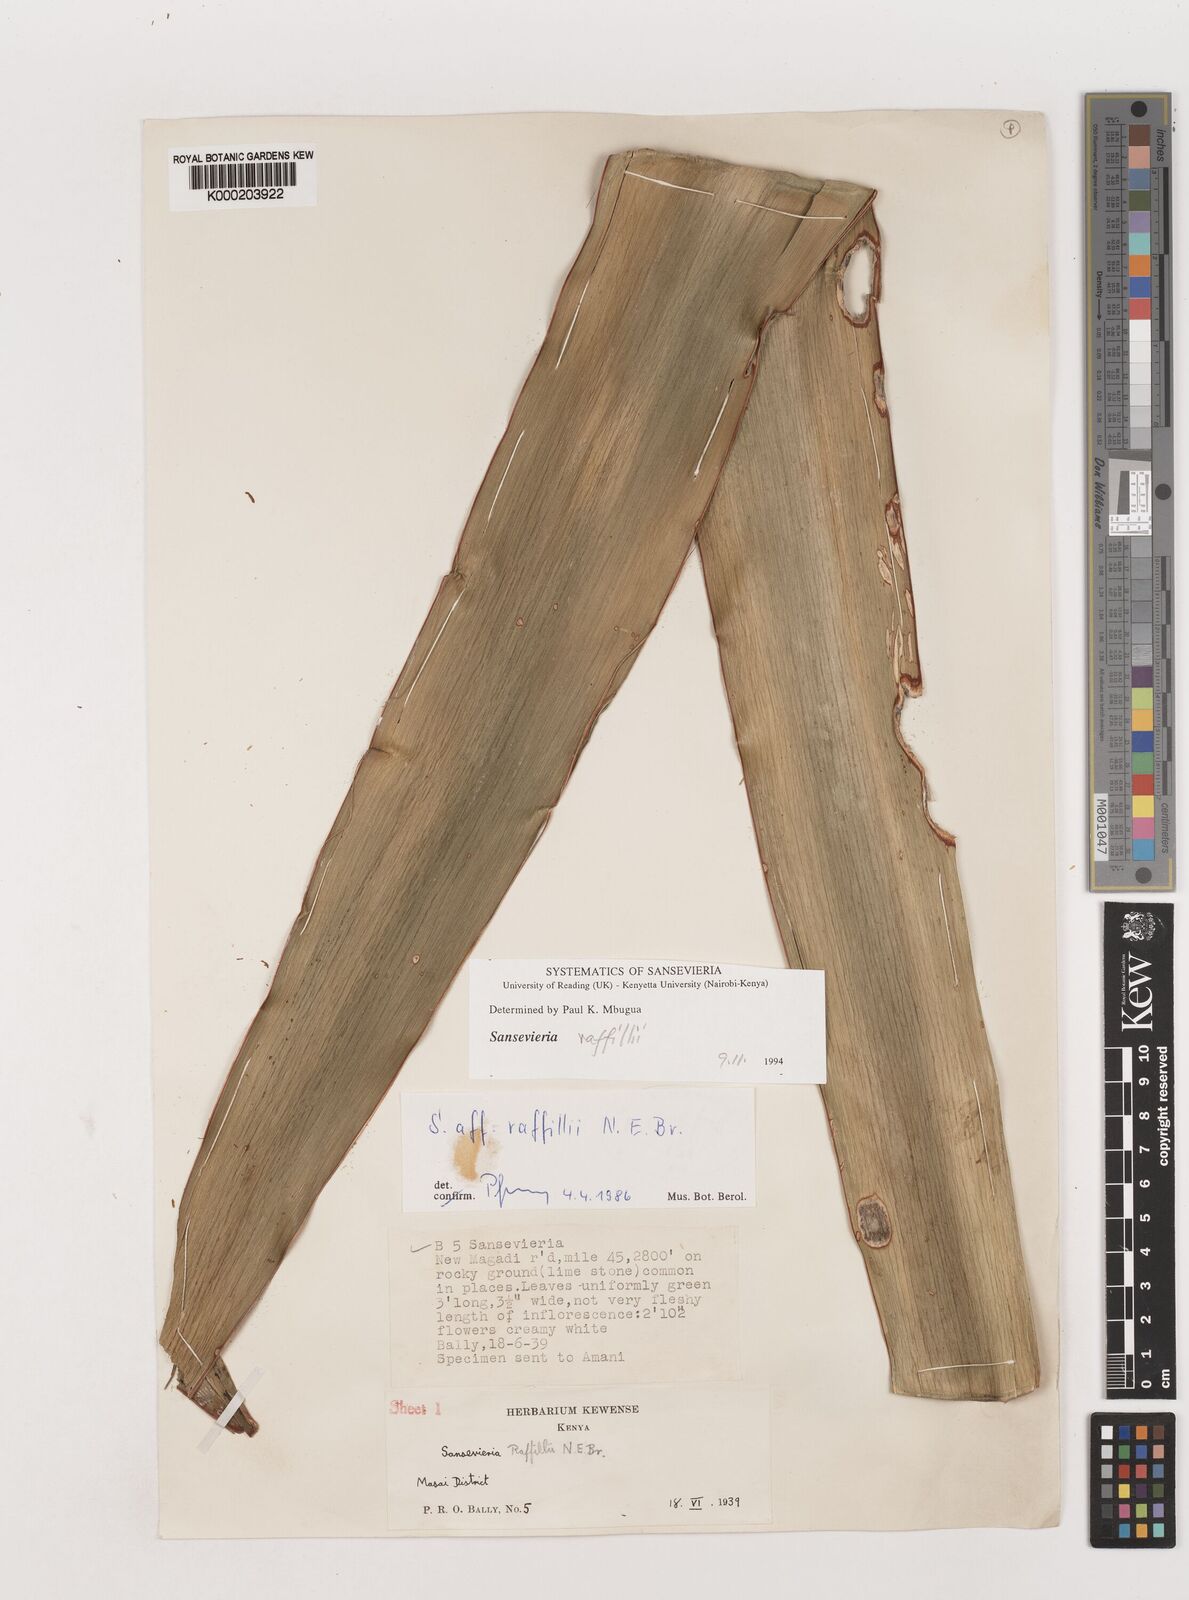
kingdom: Plantae
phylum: Tracheophyta
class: Liliopsida
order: Asparagales
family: Asparagaceae
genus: Dracaena
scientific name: Dracaena raffillii
